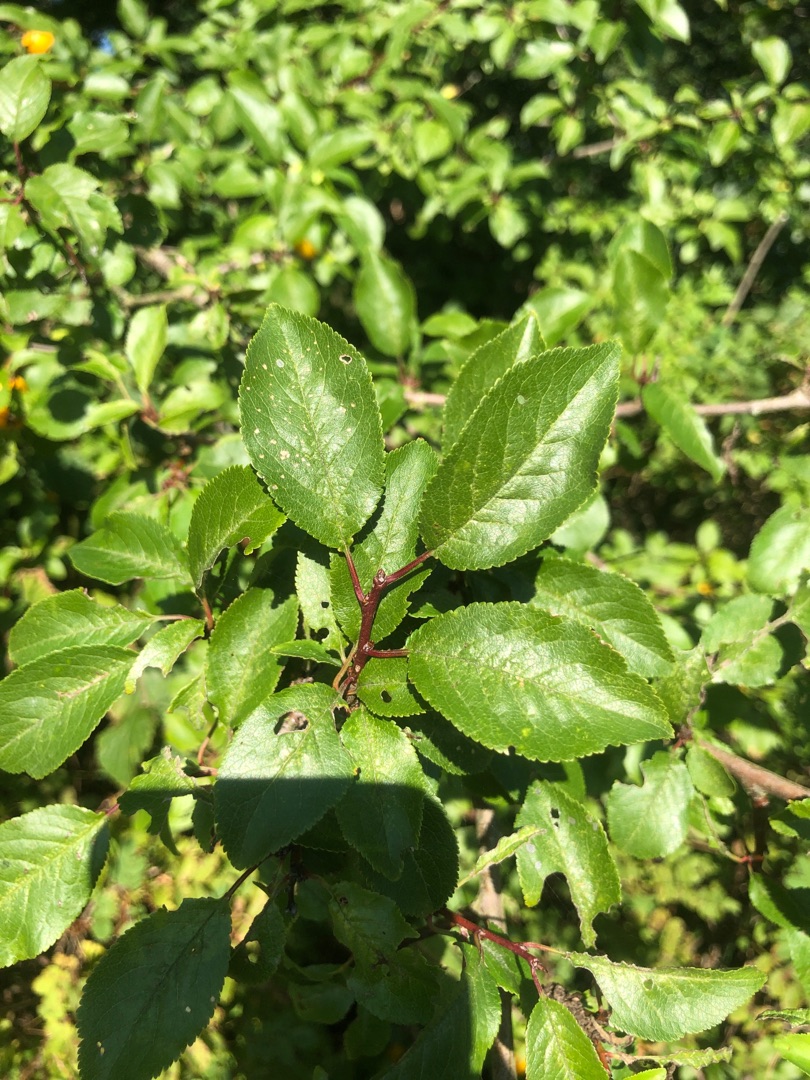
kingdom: Plantae
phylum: Tracheophyta
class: Magnoliopsida
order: Rosales
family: Rosaceae
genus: Prunus
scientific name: Prunus cerasifera
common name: Mirabel
